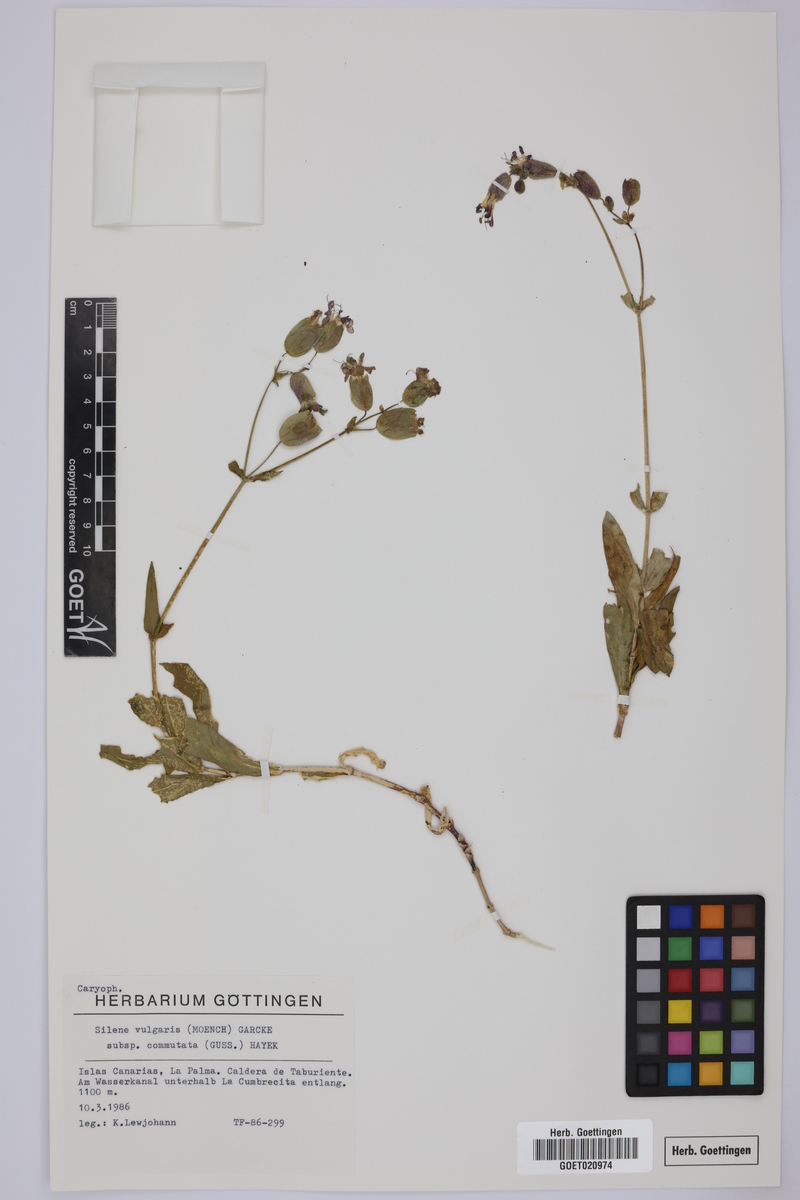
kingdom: Plantae
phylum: Tracheophyta
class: Magnoliopsida
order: Caryophyllales
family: Caryophyllaceae
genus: Silene
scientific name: Silene commutata
